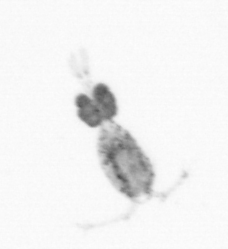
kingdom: Animalia
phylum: Arthropoda
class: Copepoda
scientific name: Copepoda
